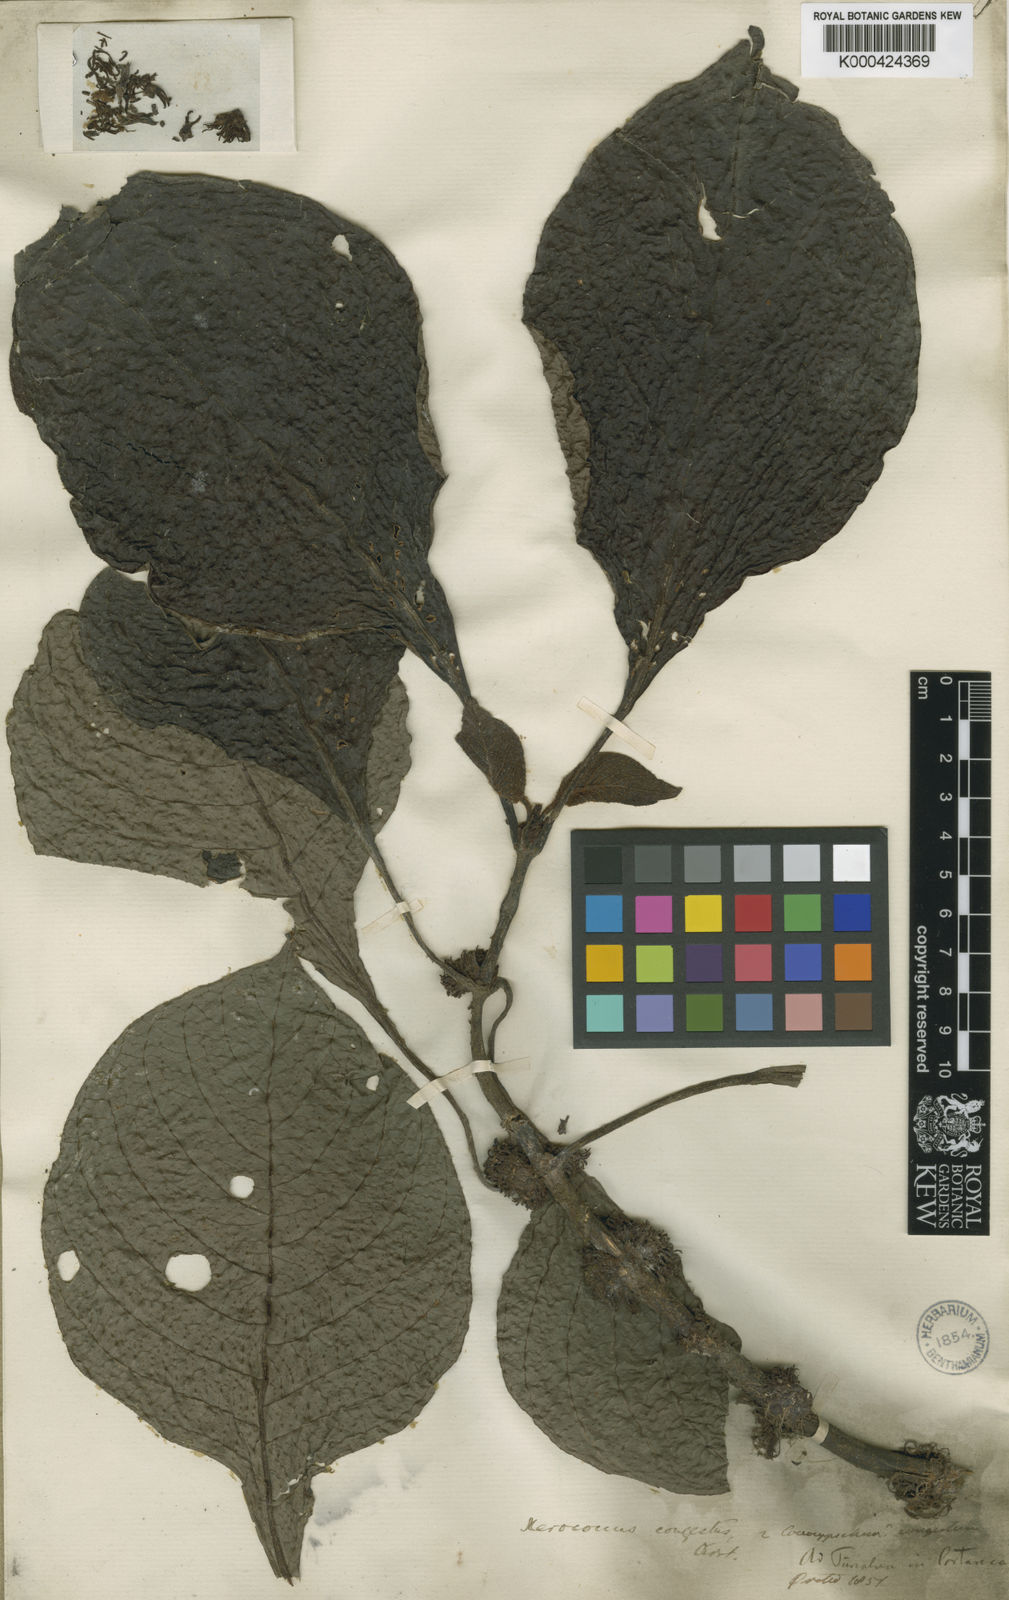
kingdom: Plantae
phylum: Tracheophyta
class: Magnoliopsida
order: Gentianales
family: Rubiaceae
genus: Hoffmannia
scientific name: Hoffmannia congesta
